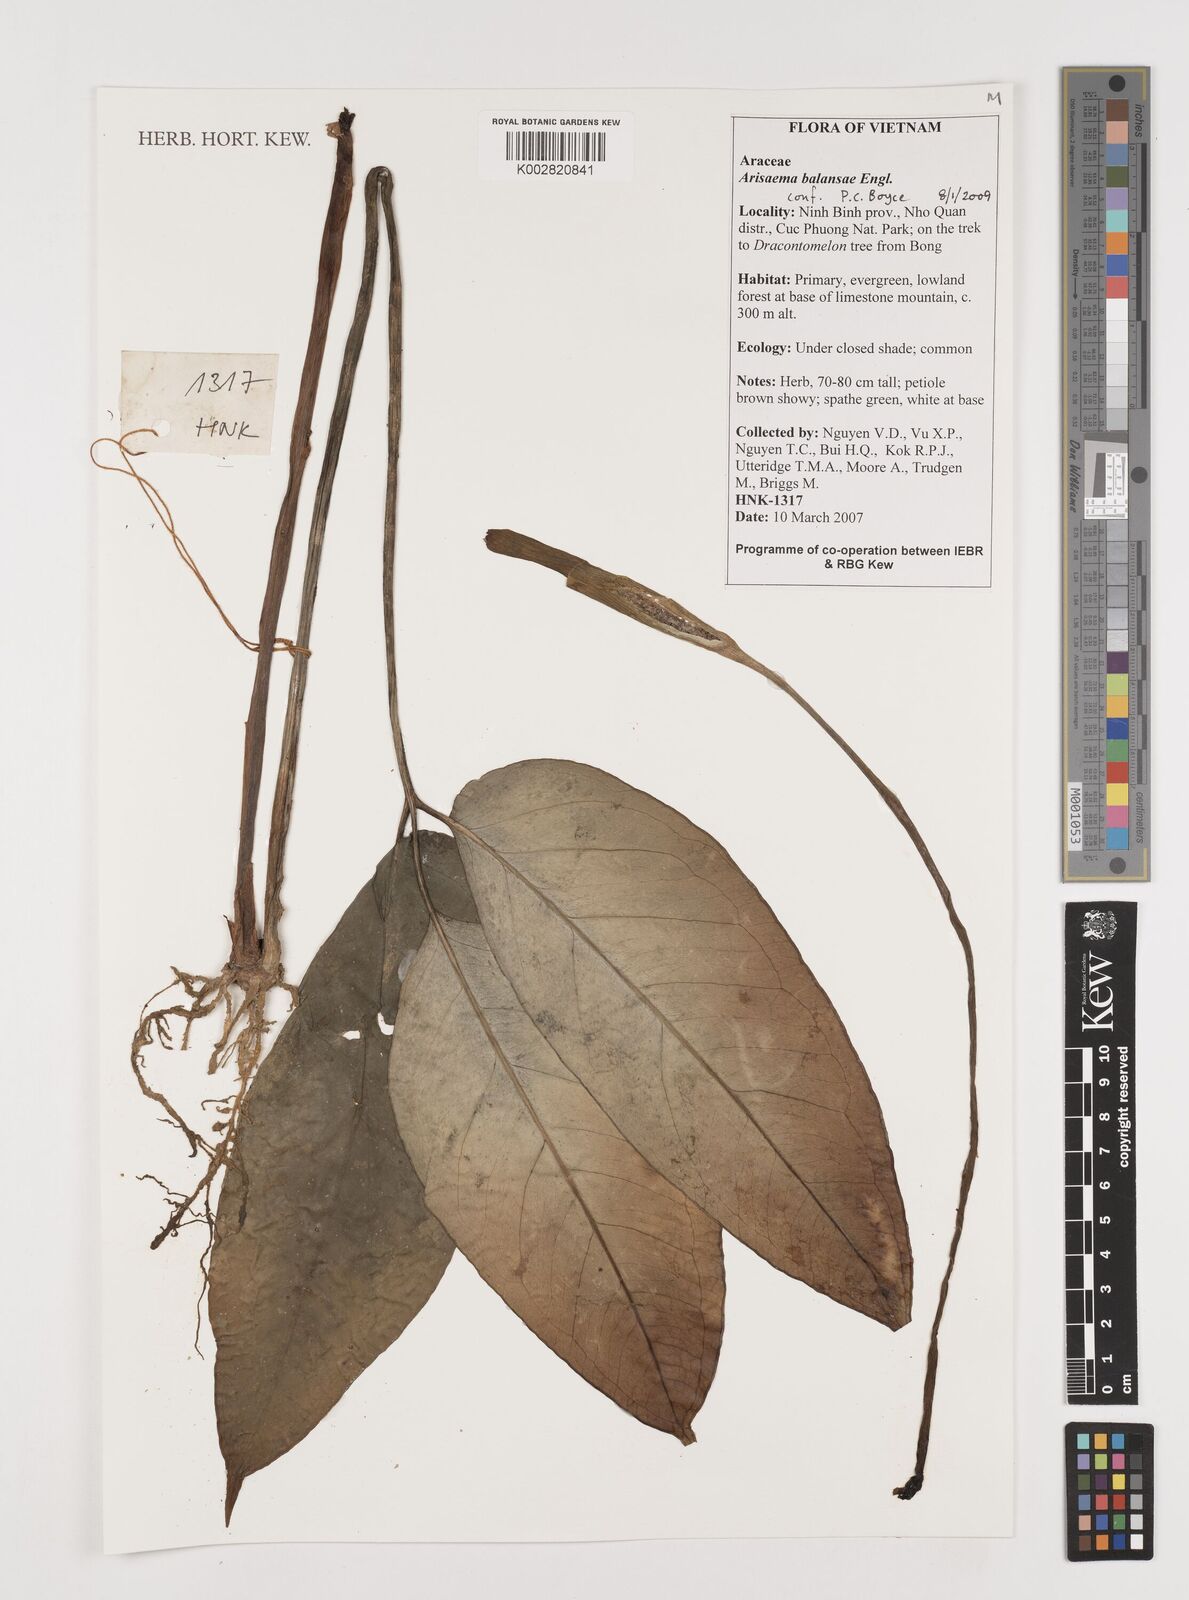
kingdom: Plantae
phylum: Tracheophyta
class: Liliopsida
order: Alismatales
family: Araceae
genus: Steudnera
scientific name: Steudnera kerrii
